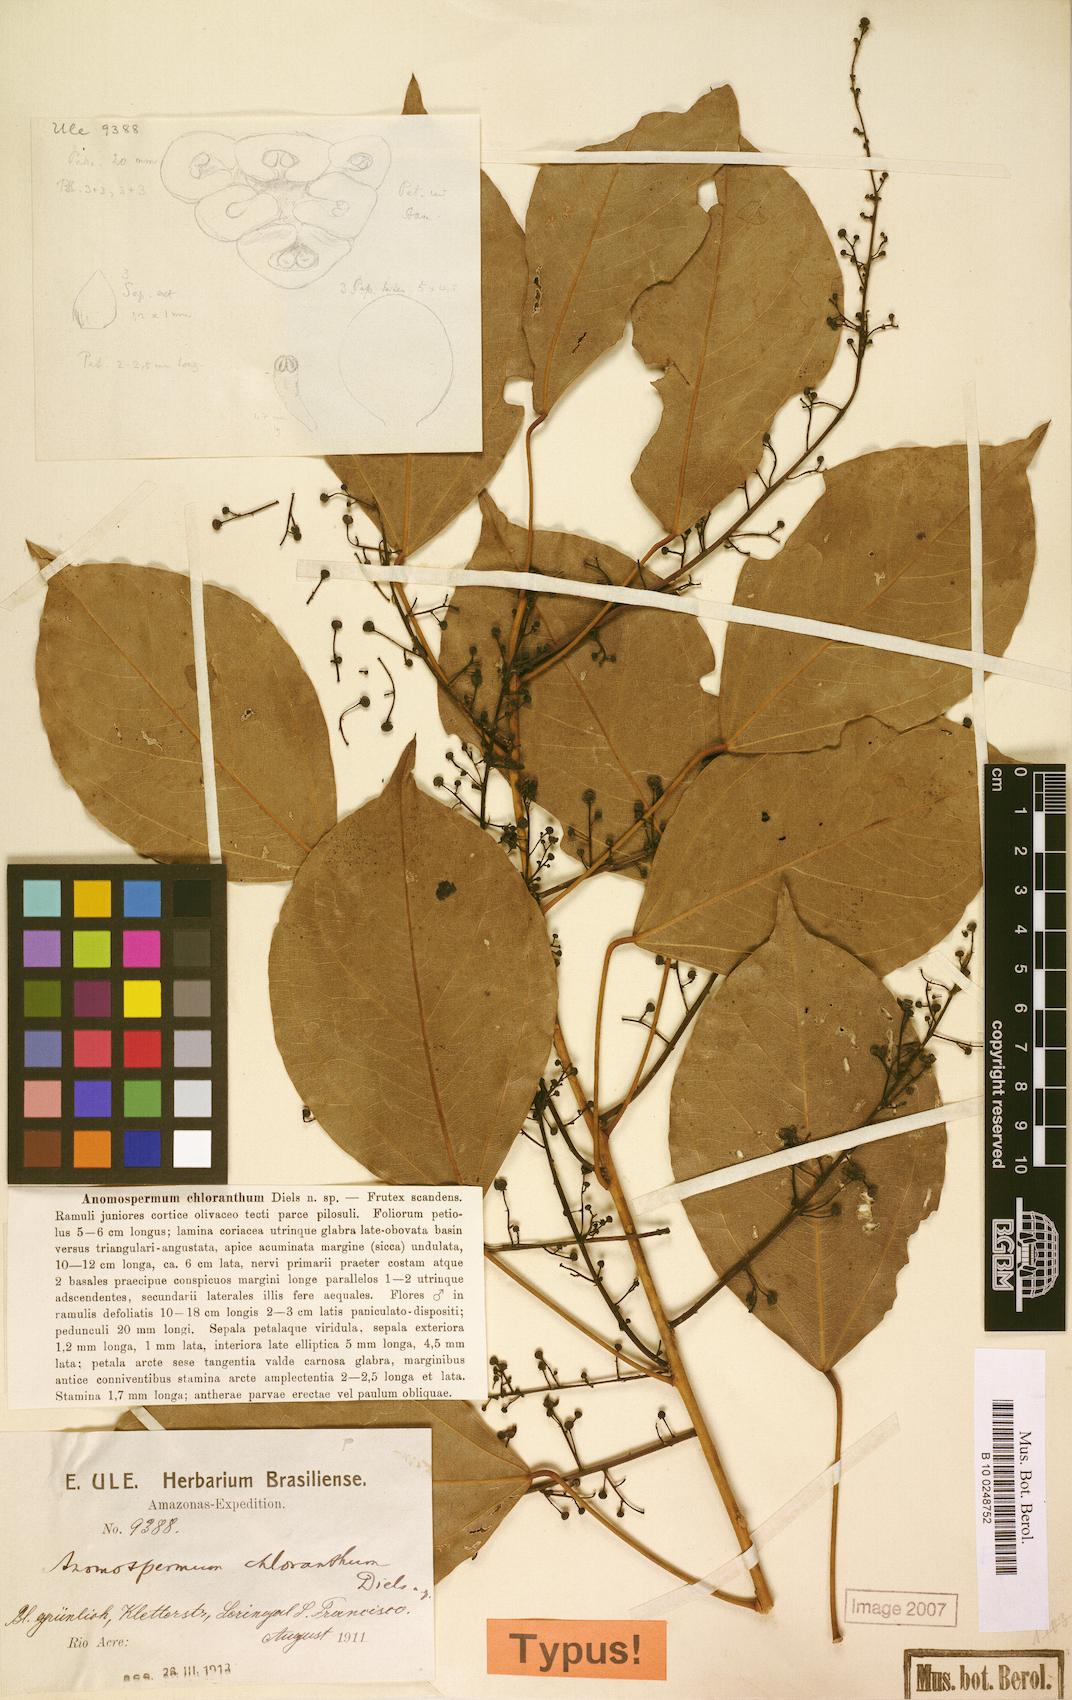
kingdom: Plantae
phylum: Tracheophyta
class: Magnoliopsida
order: Ranunculales
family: Menispermaceae
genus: Anomospermum
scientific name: Anomospermum chloranthum
